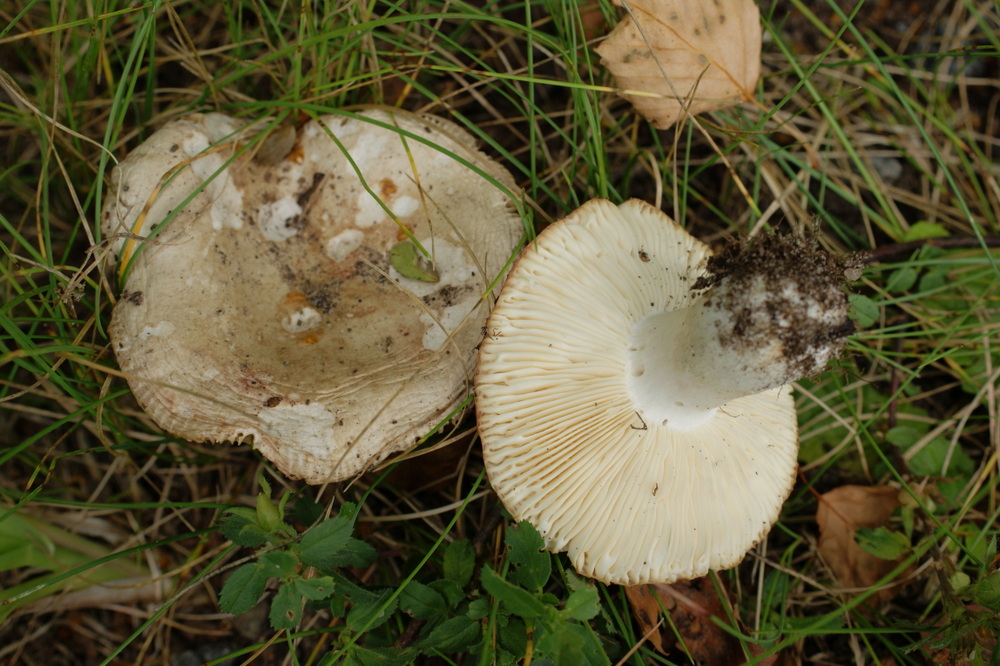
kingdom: Fungi
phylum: Basidiomycota
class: Agaricomycetes
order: Russulales
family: Russulaceae
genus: Russula
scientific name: Russula depallens
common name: falmende skørhat
